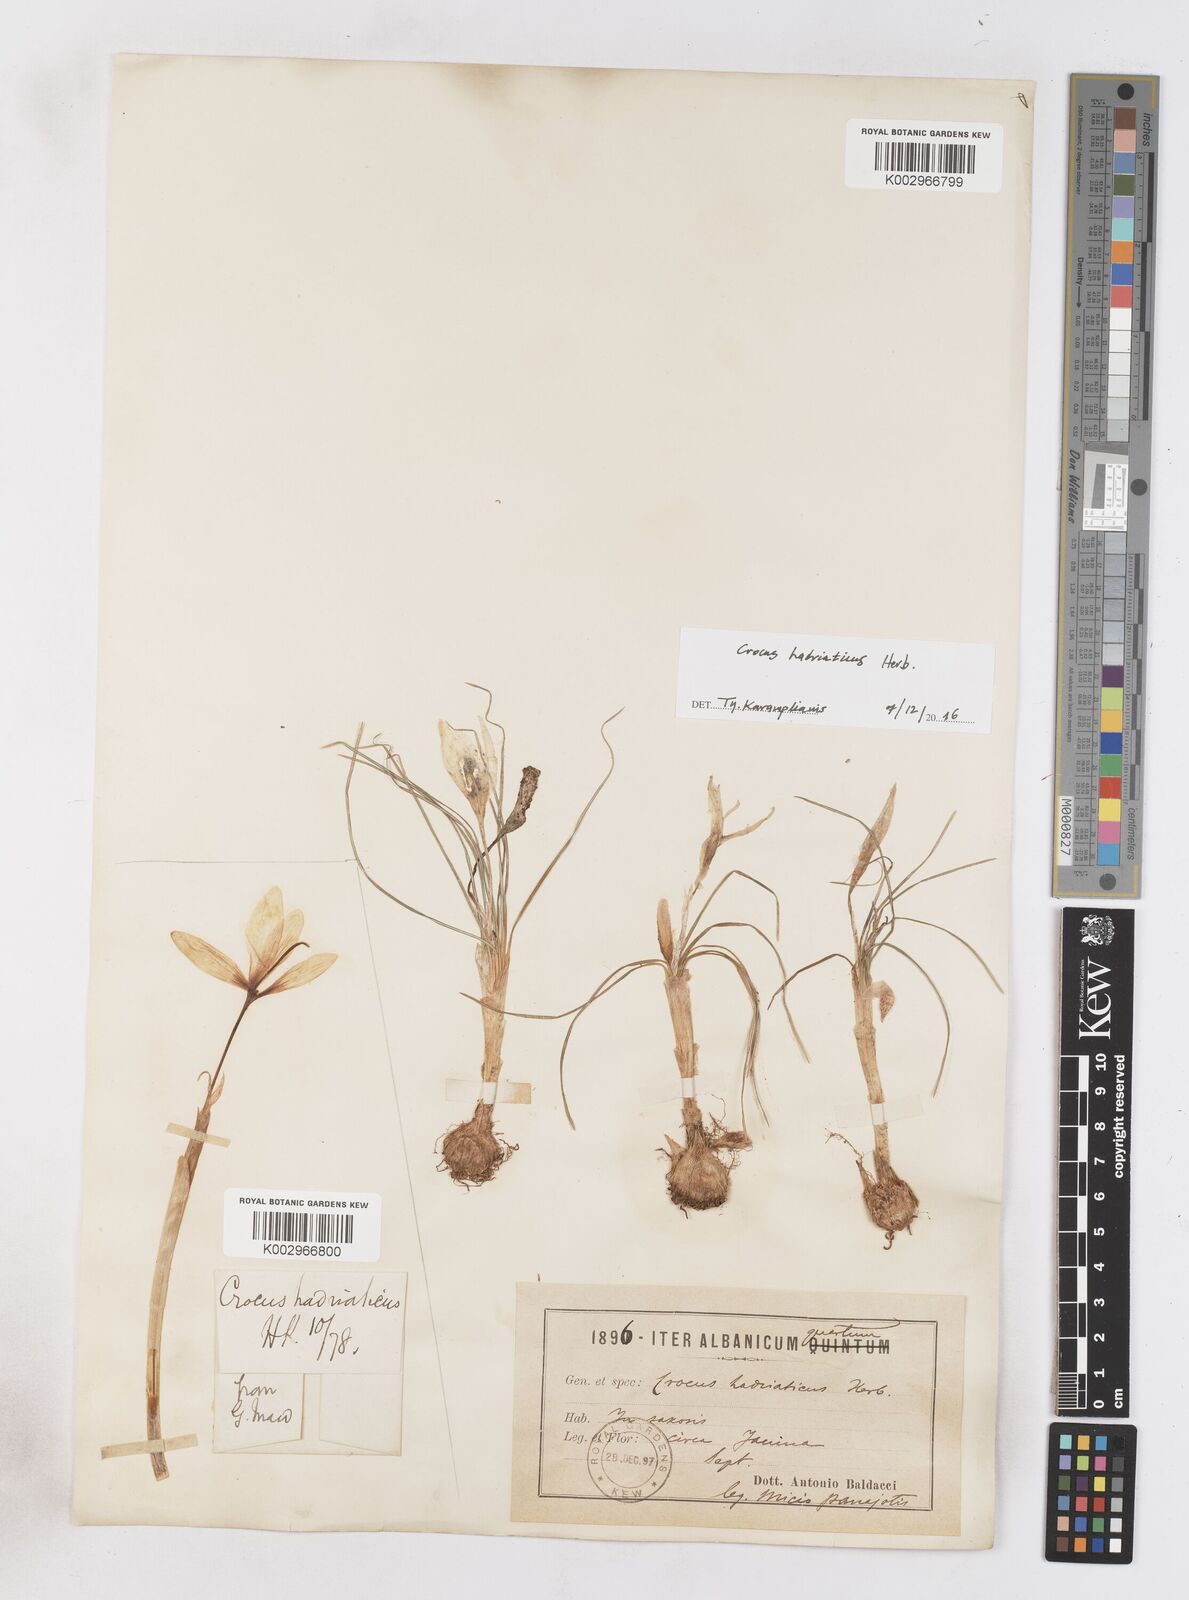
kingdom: Plantae
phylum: Tracheophyta
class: Liliopsida
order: Asparagales
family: Iridaceae
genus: Crocus
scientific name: Crocus hadriaticus
